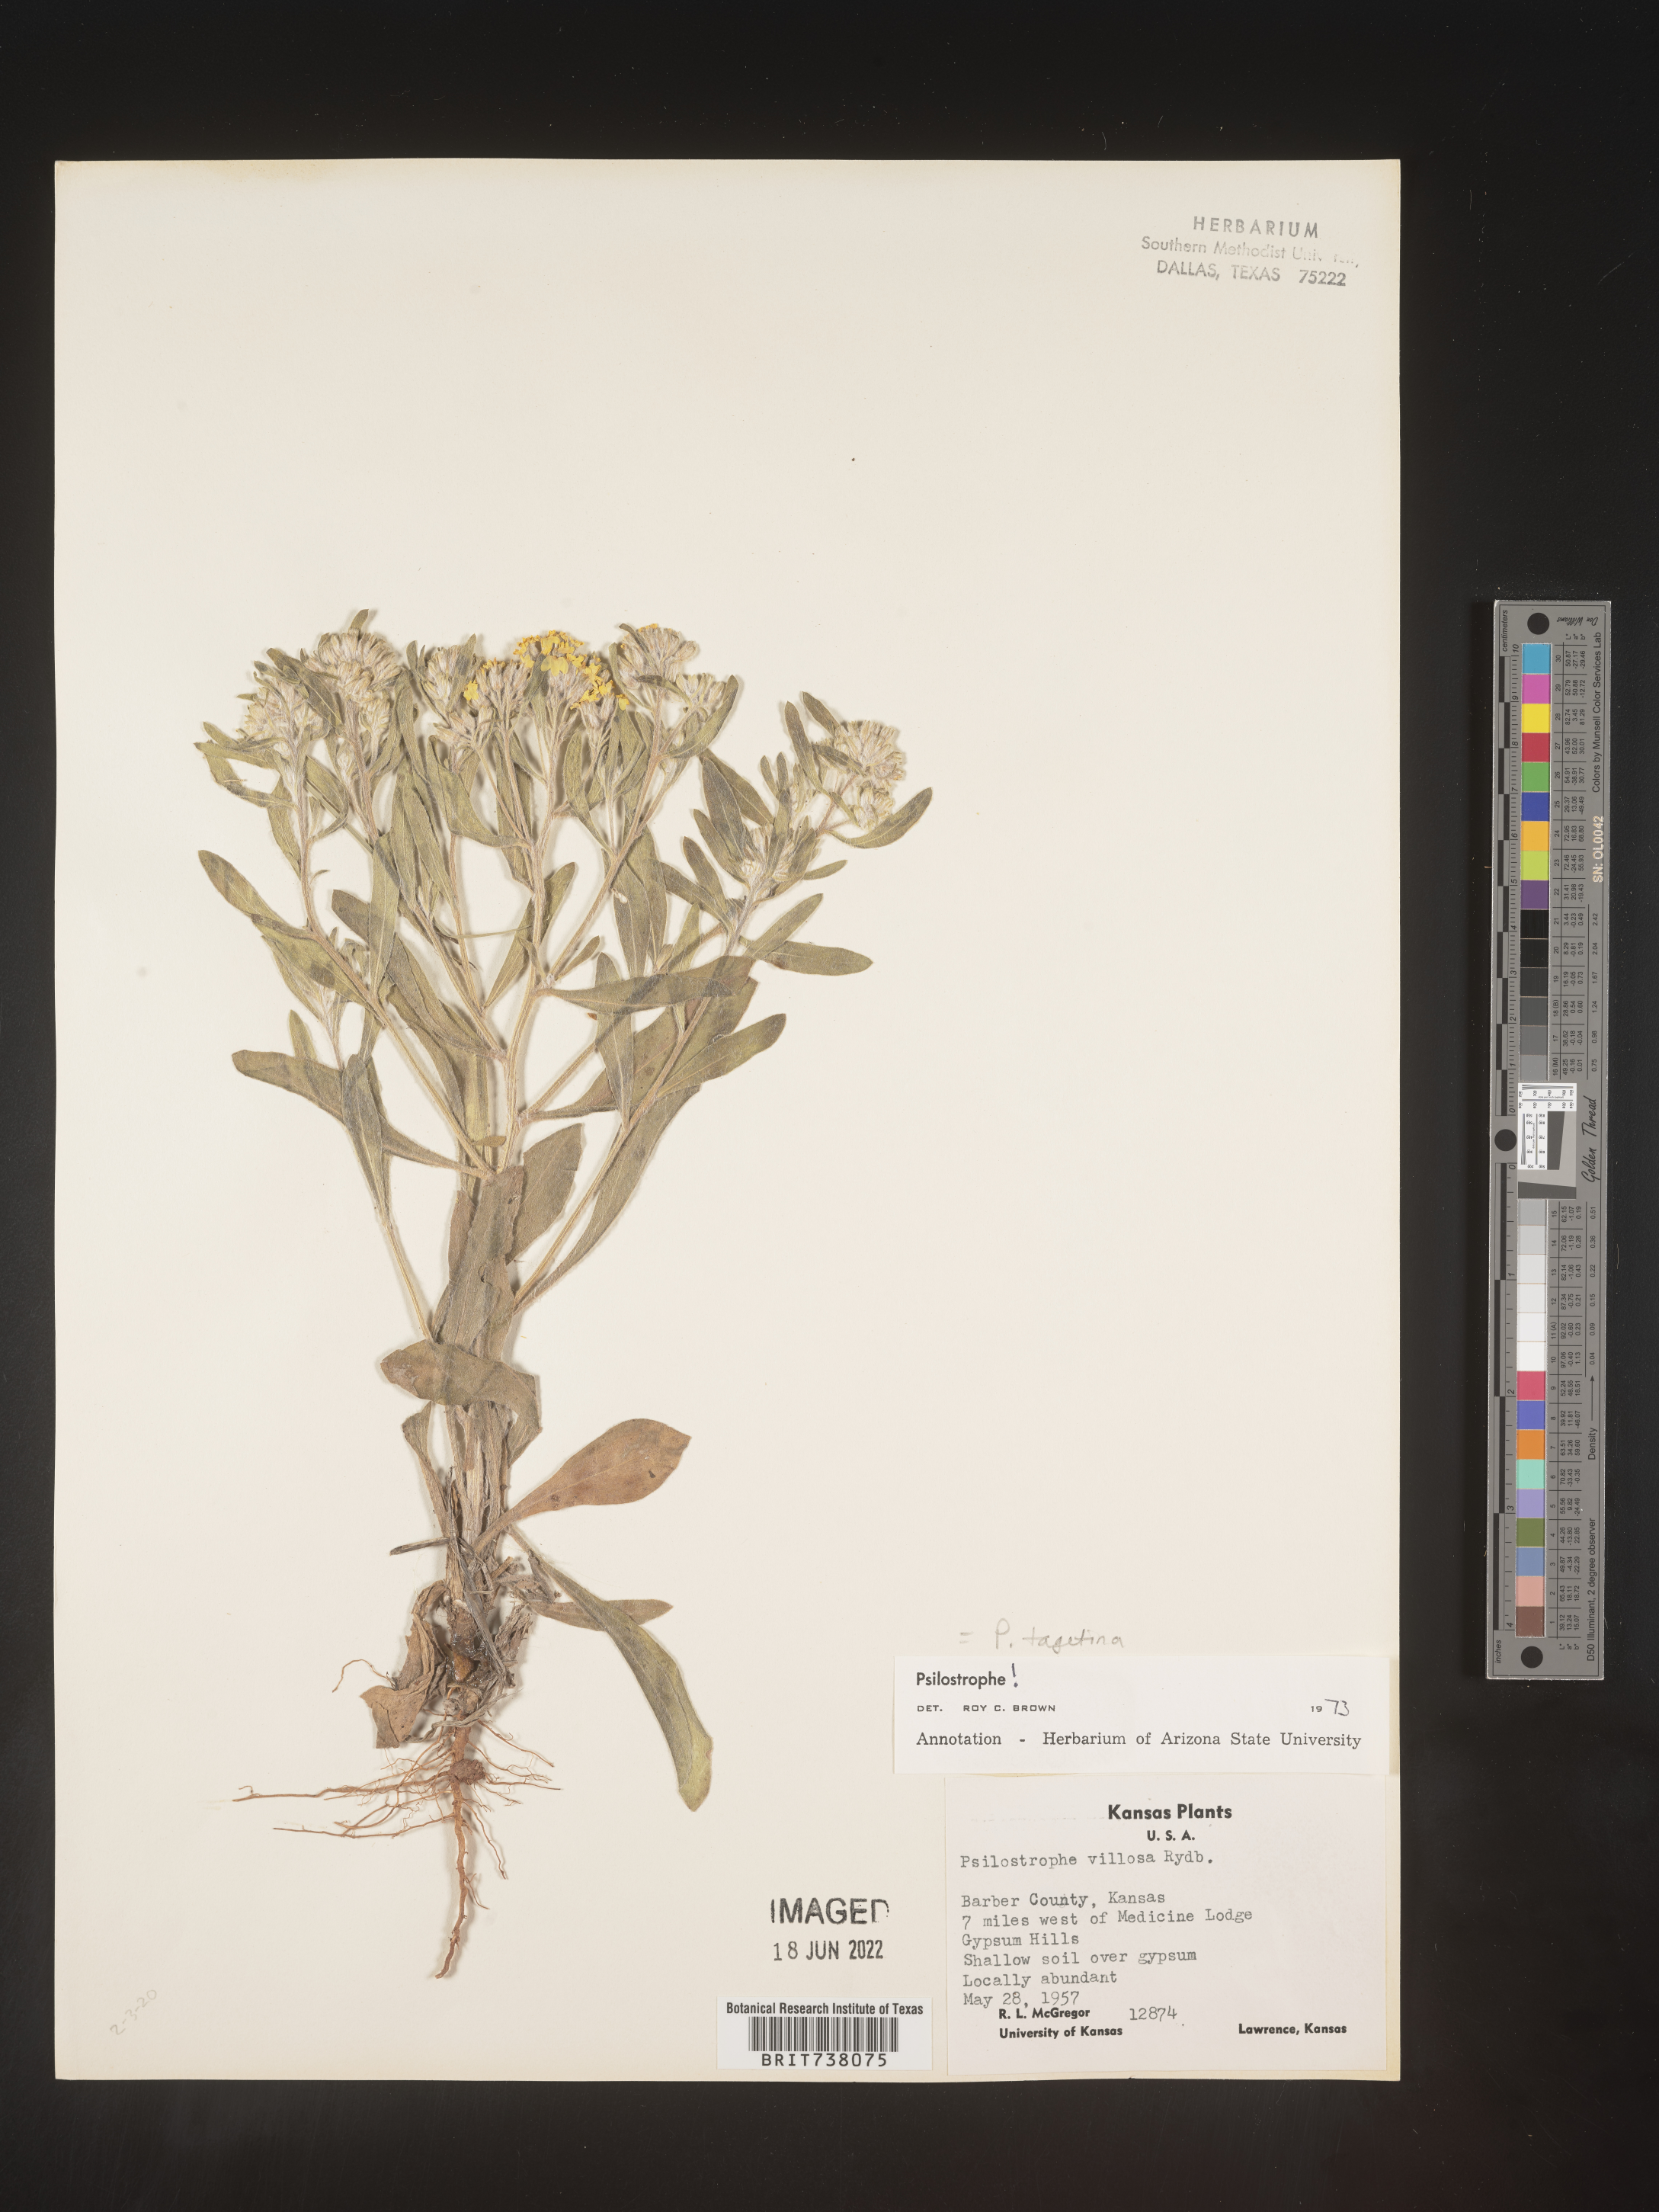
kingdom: Plantae
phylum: Tracheophyta
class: Magnoliopsida
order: Asterales
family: Asteraceae
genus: Psilostrophe
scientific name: Psilostrophe tagetina
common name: Marigold paper-flower
